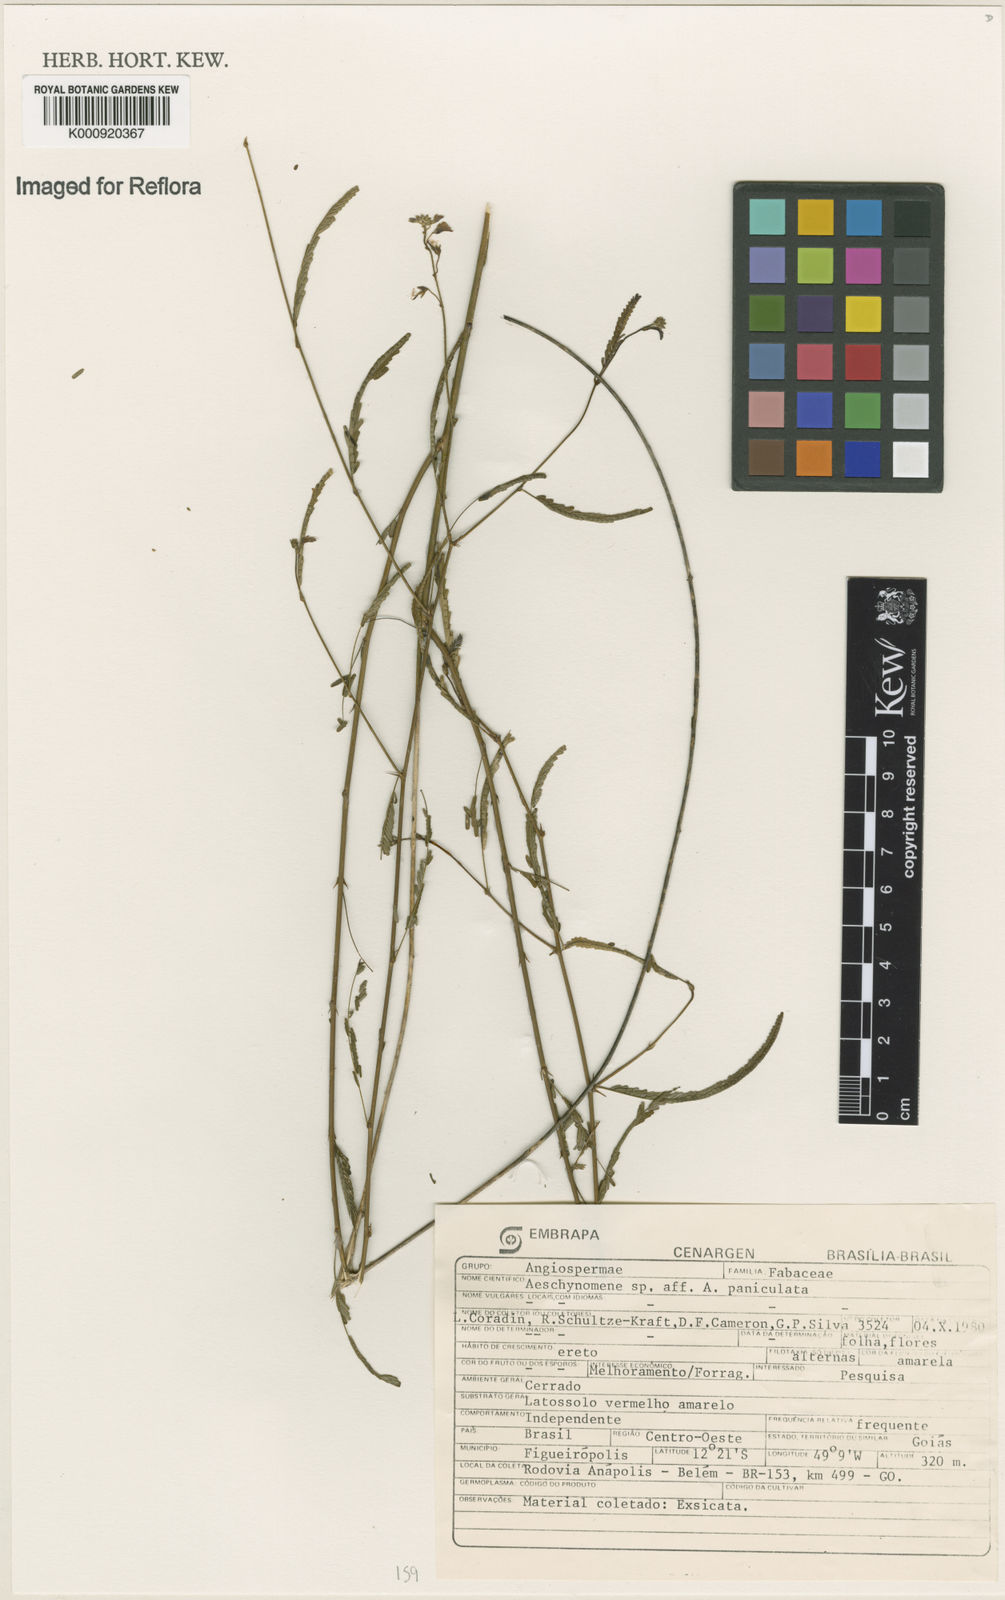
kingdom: Plantae
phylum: Tracheophyta
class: Magnoliopsida
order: Fabales
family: Fabaceae
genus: Ctenodon
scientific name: Ctenodon paniculatus
